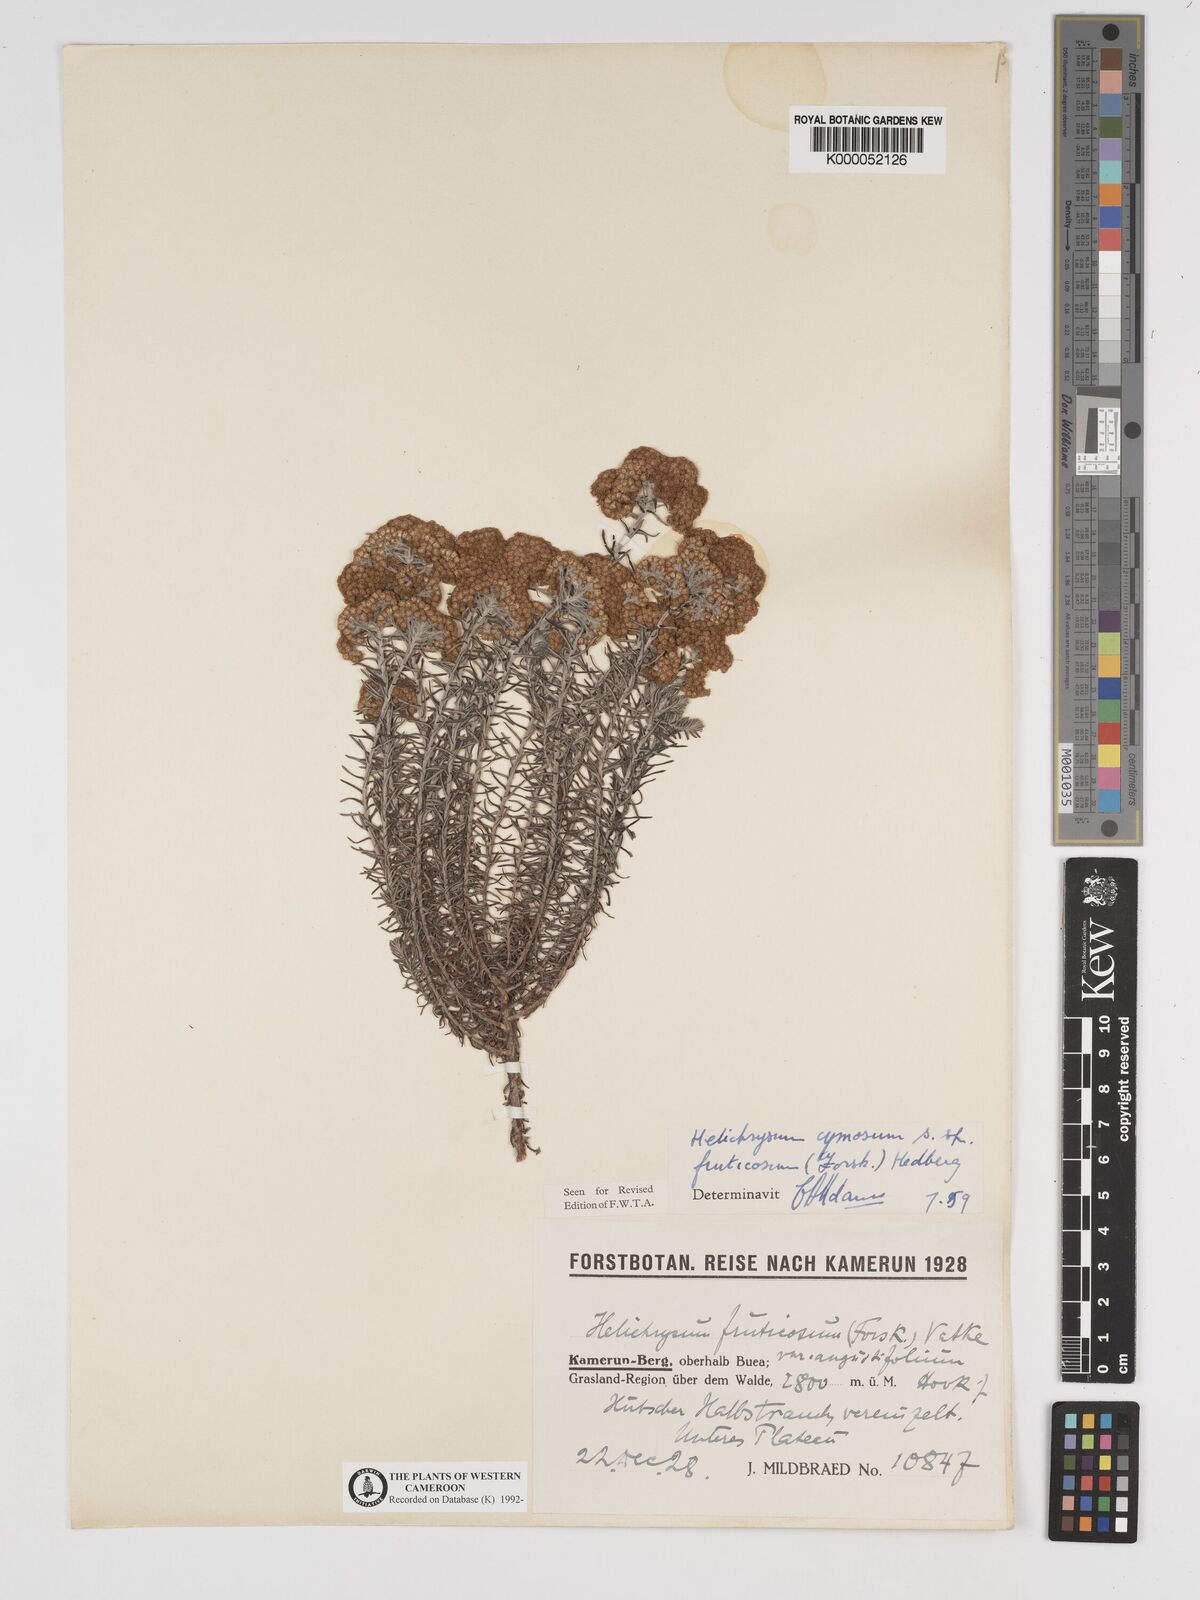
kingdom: Plantae
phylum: Tracheophyta
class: Magnoliopsida
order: Asterales
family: Asteraceae
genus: Helichrysum
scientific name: Helichrysum forskahlii
